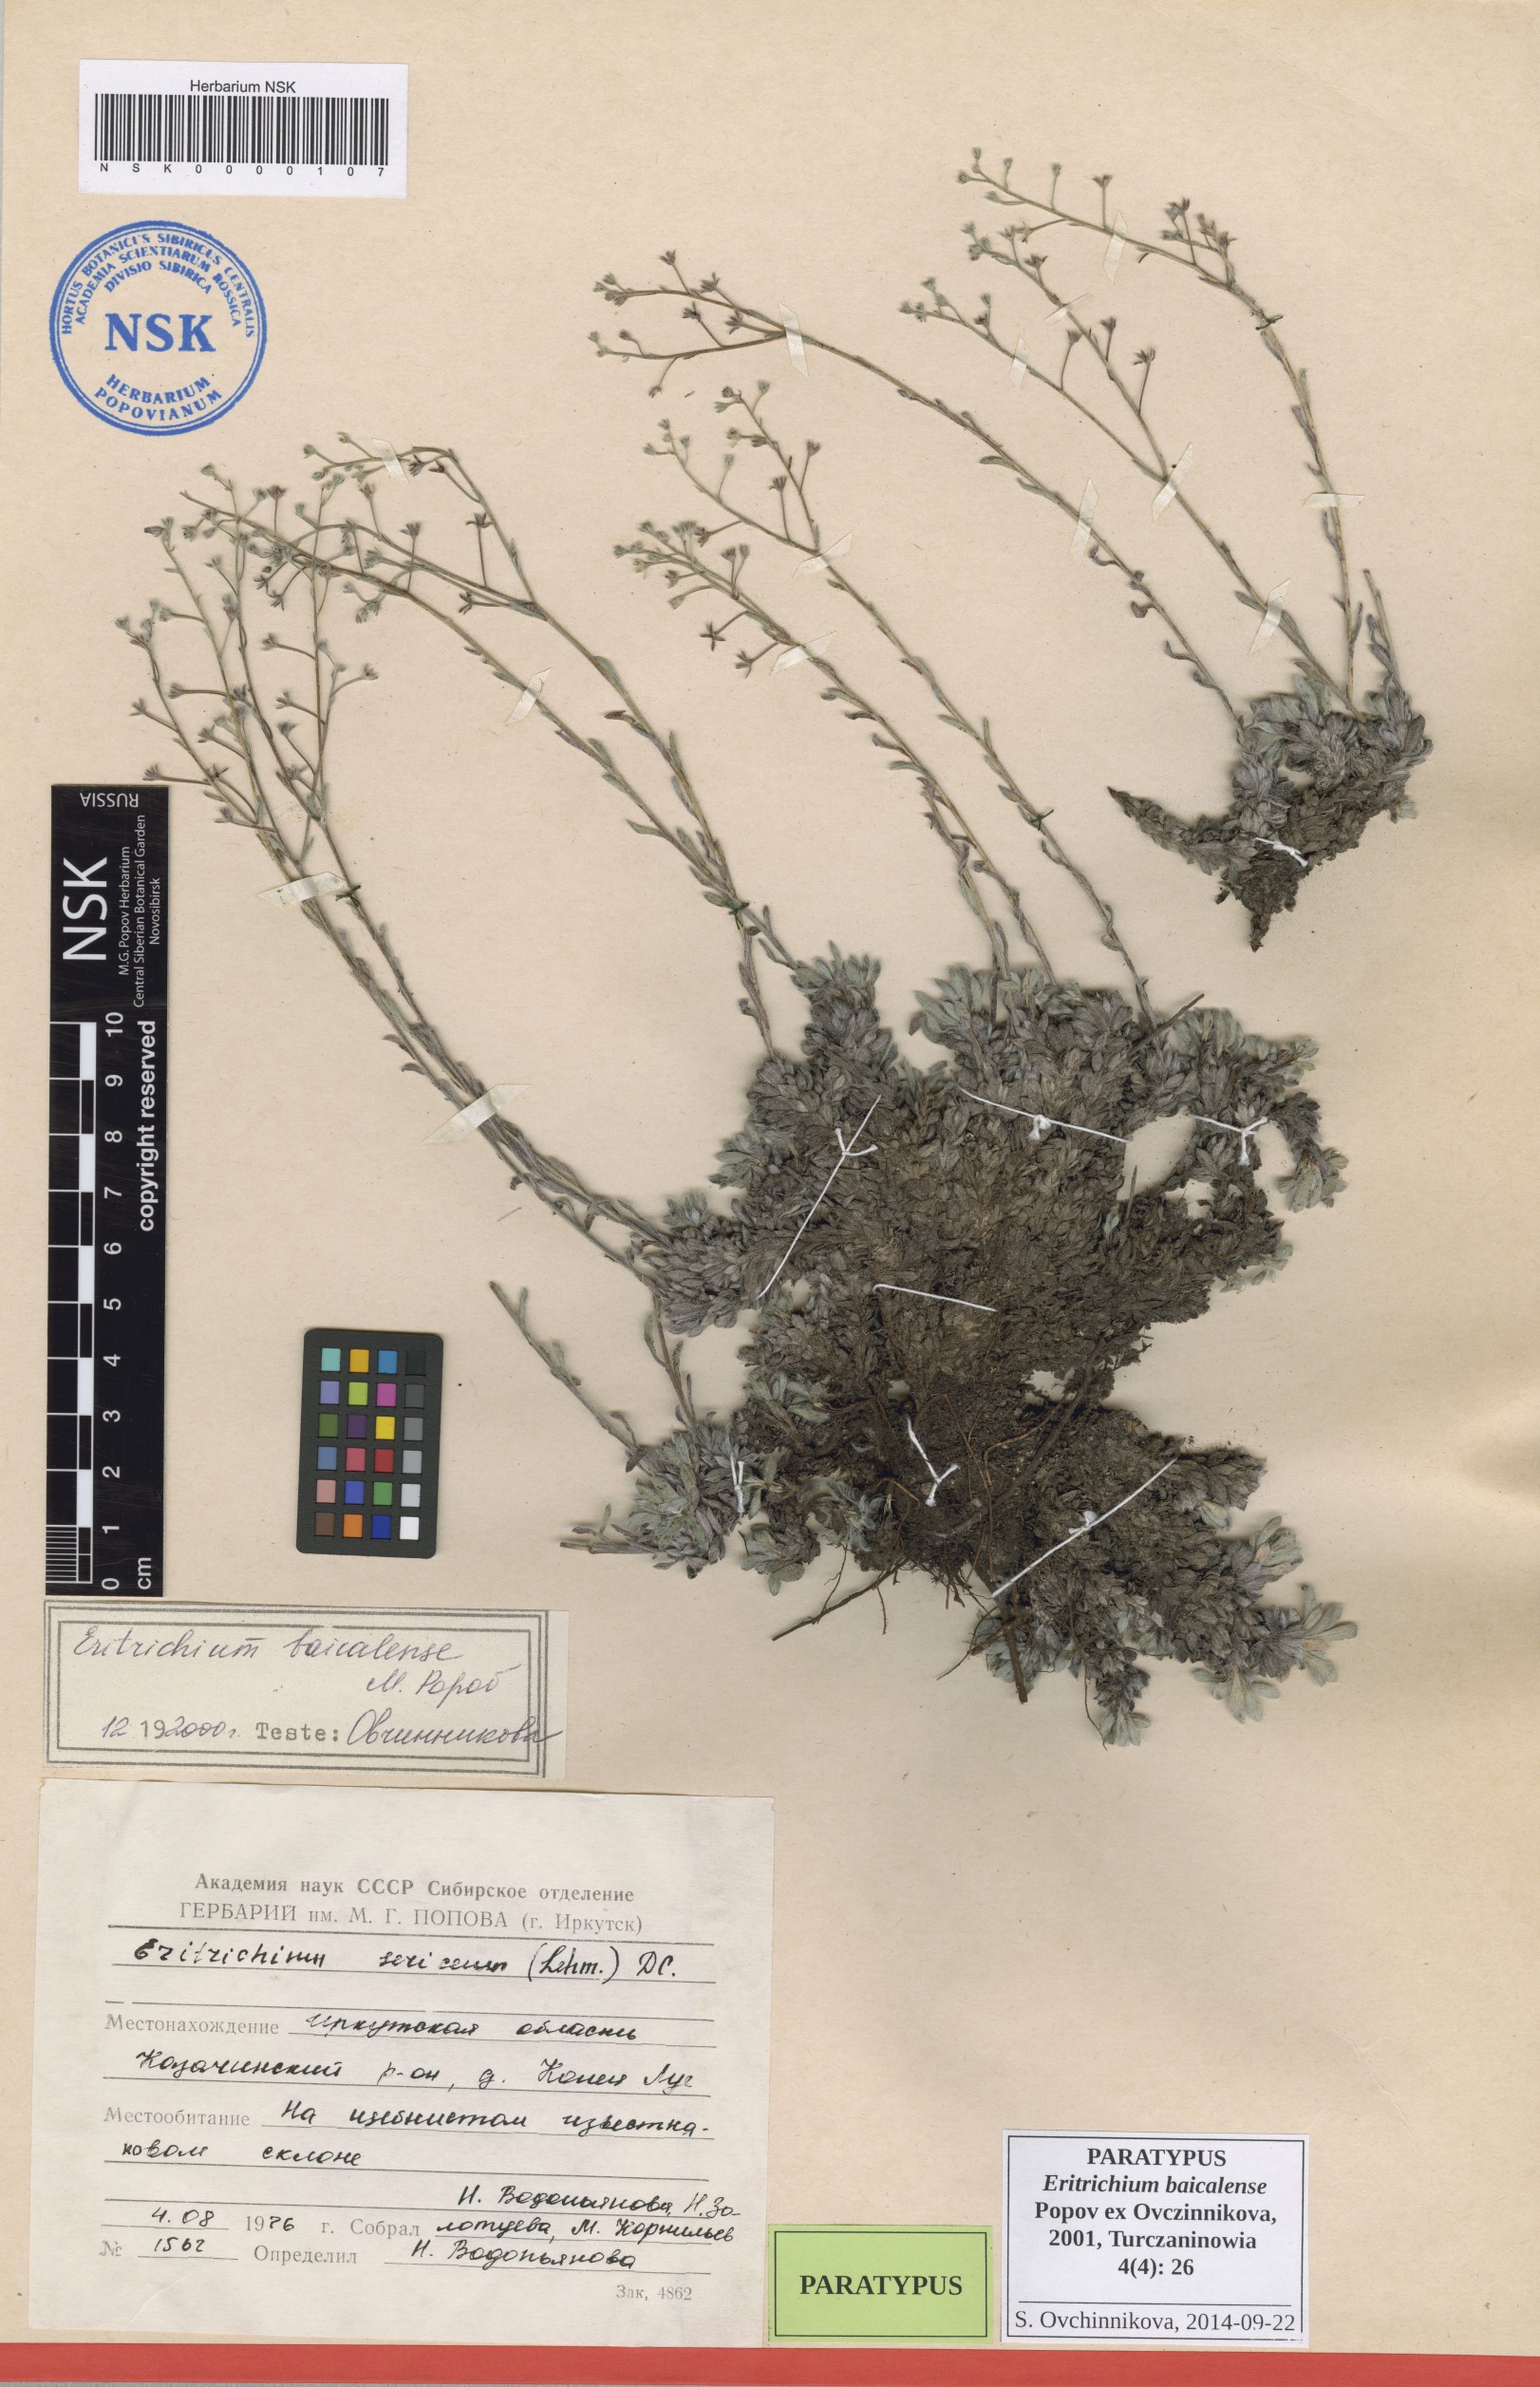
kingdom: Plantae
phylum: Tracheophyta
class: Magnoliopsida
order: Boraginales
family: Boraginaceae
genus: Eritrichium
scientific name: Eritrichium baicalense
